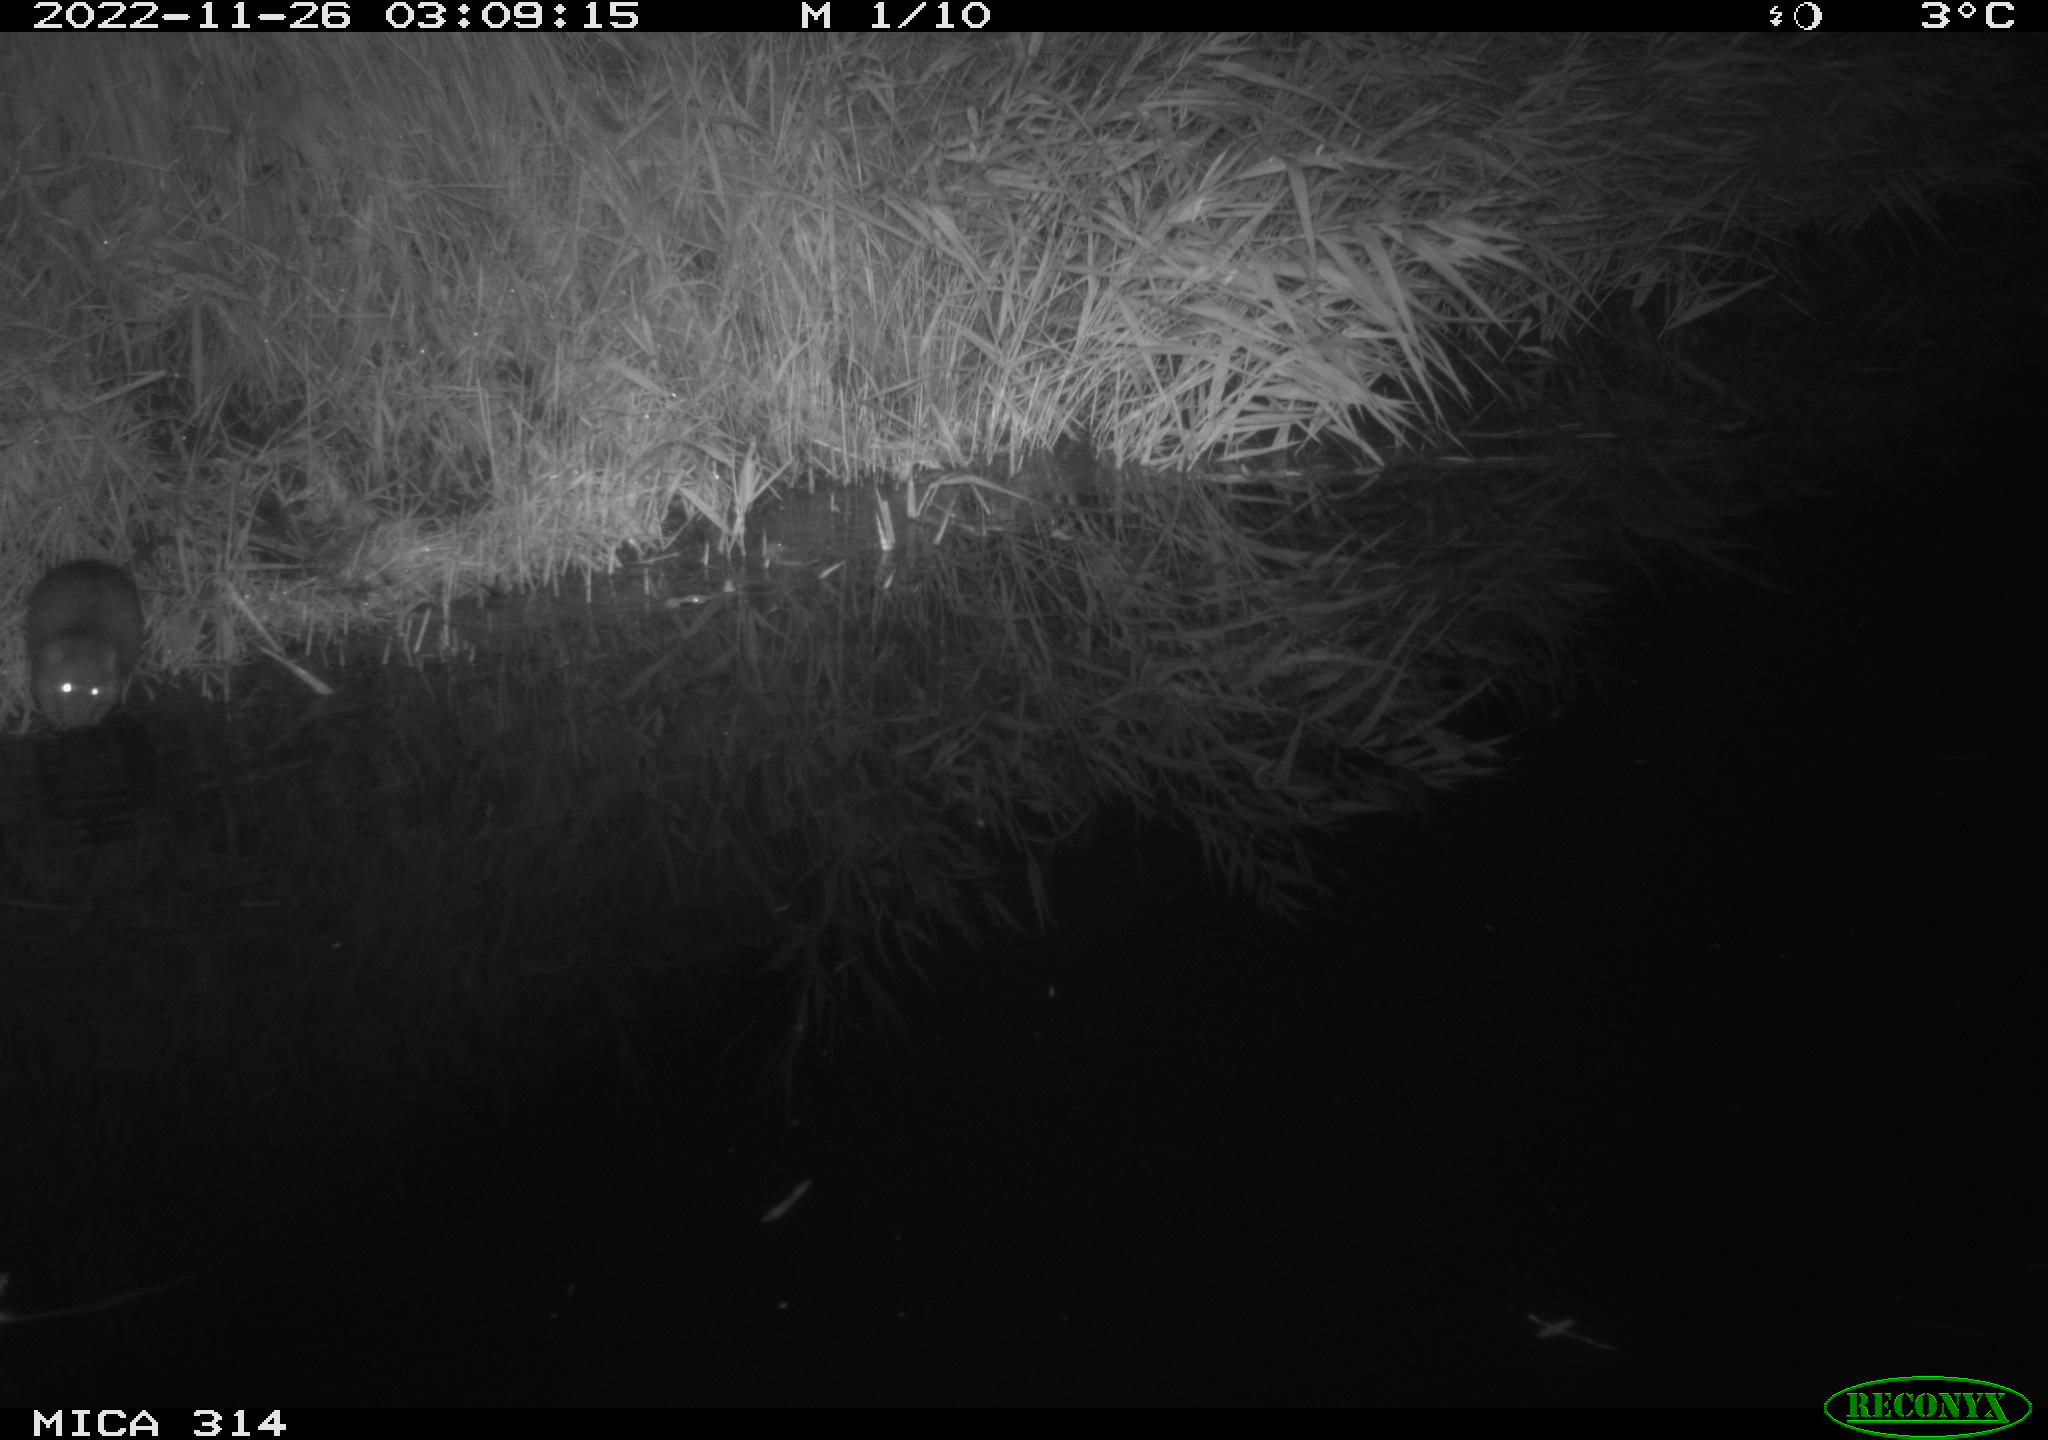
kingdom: Animalia
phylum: Chordata
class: Mammalia
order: Rodentia
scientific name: Rodentia
